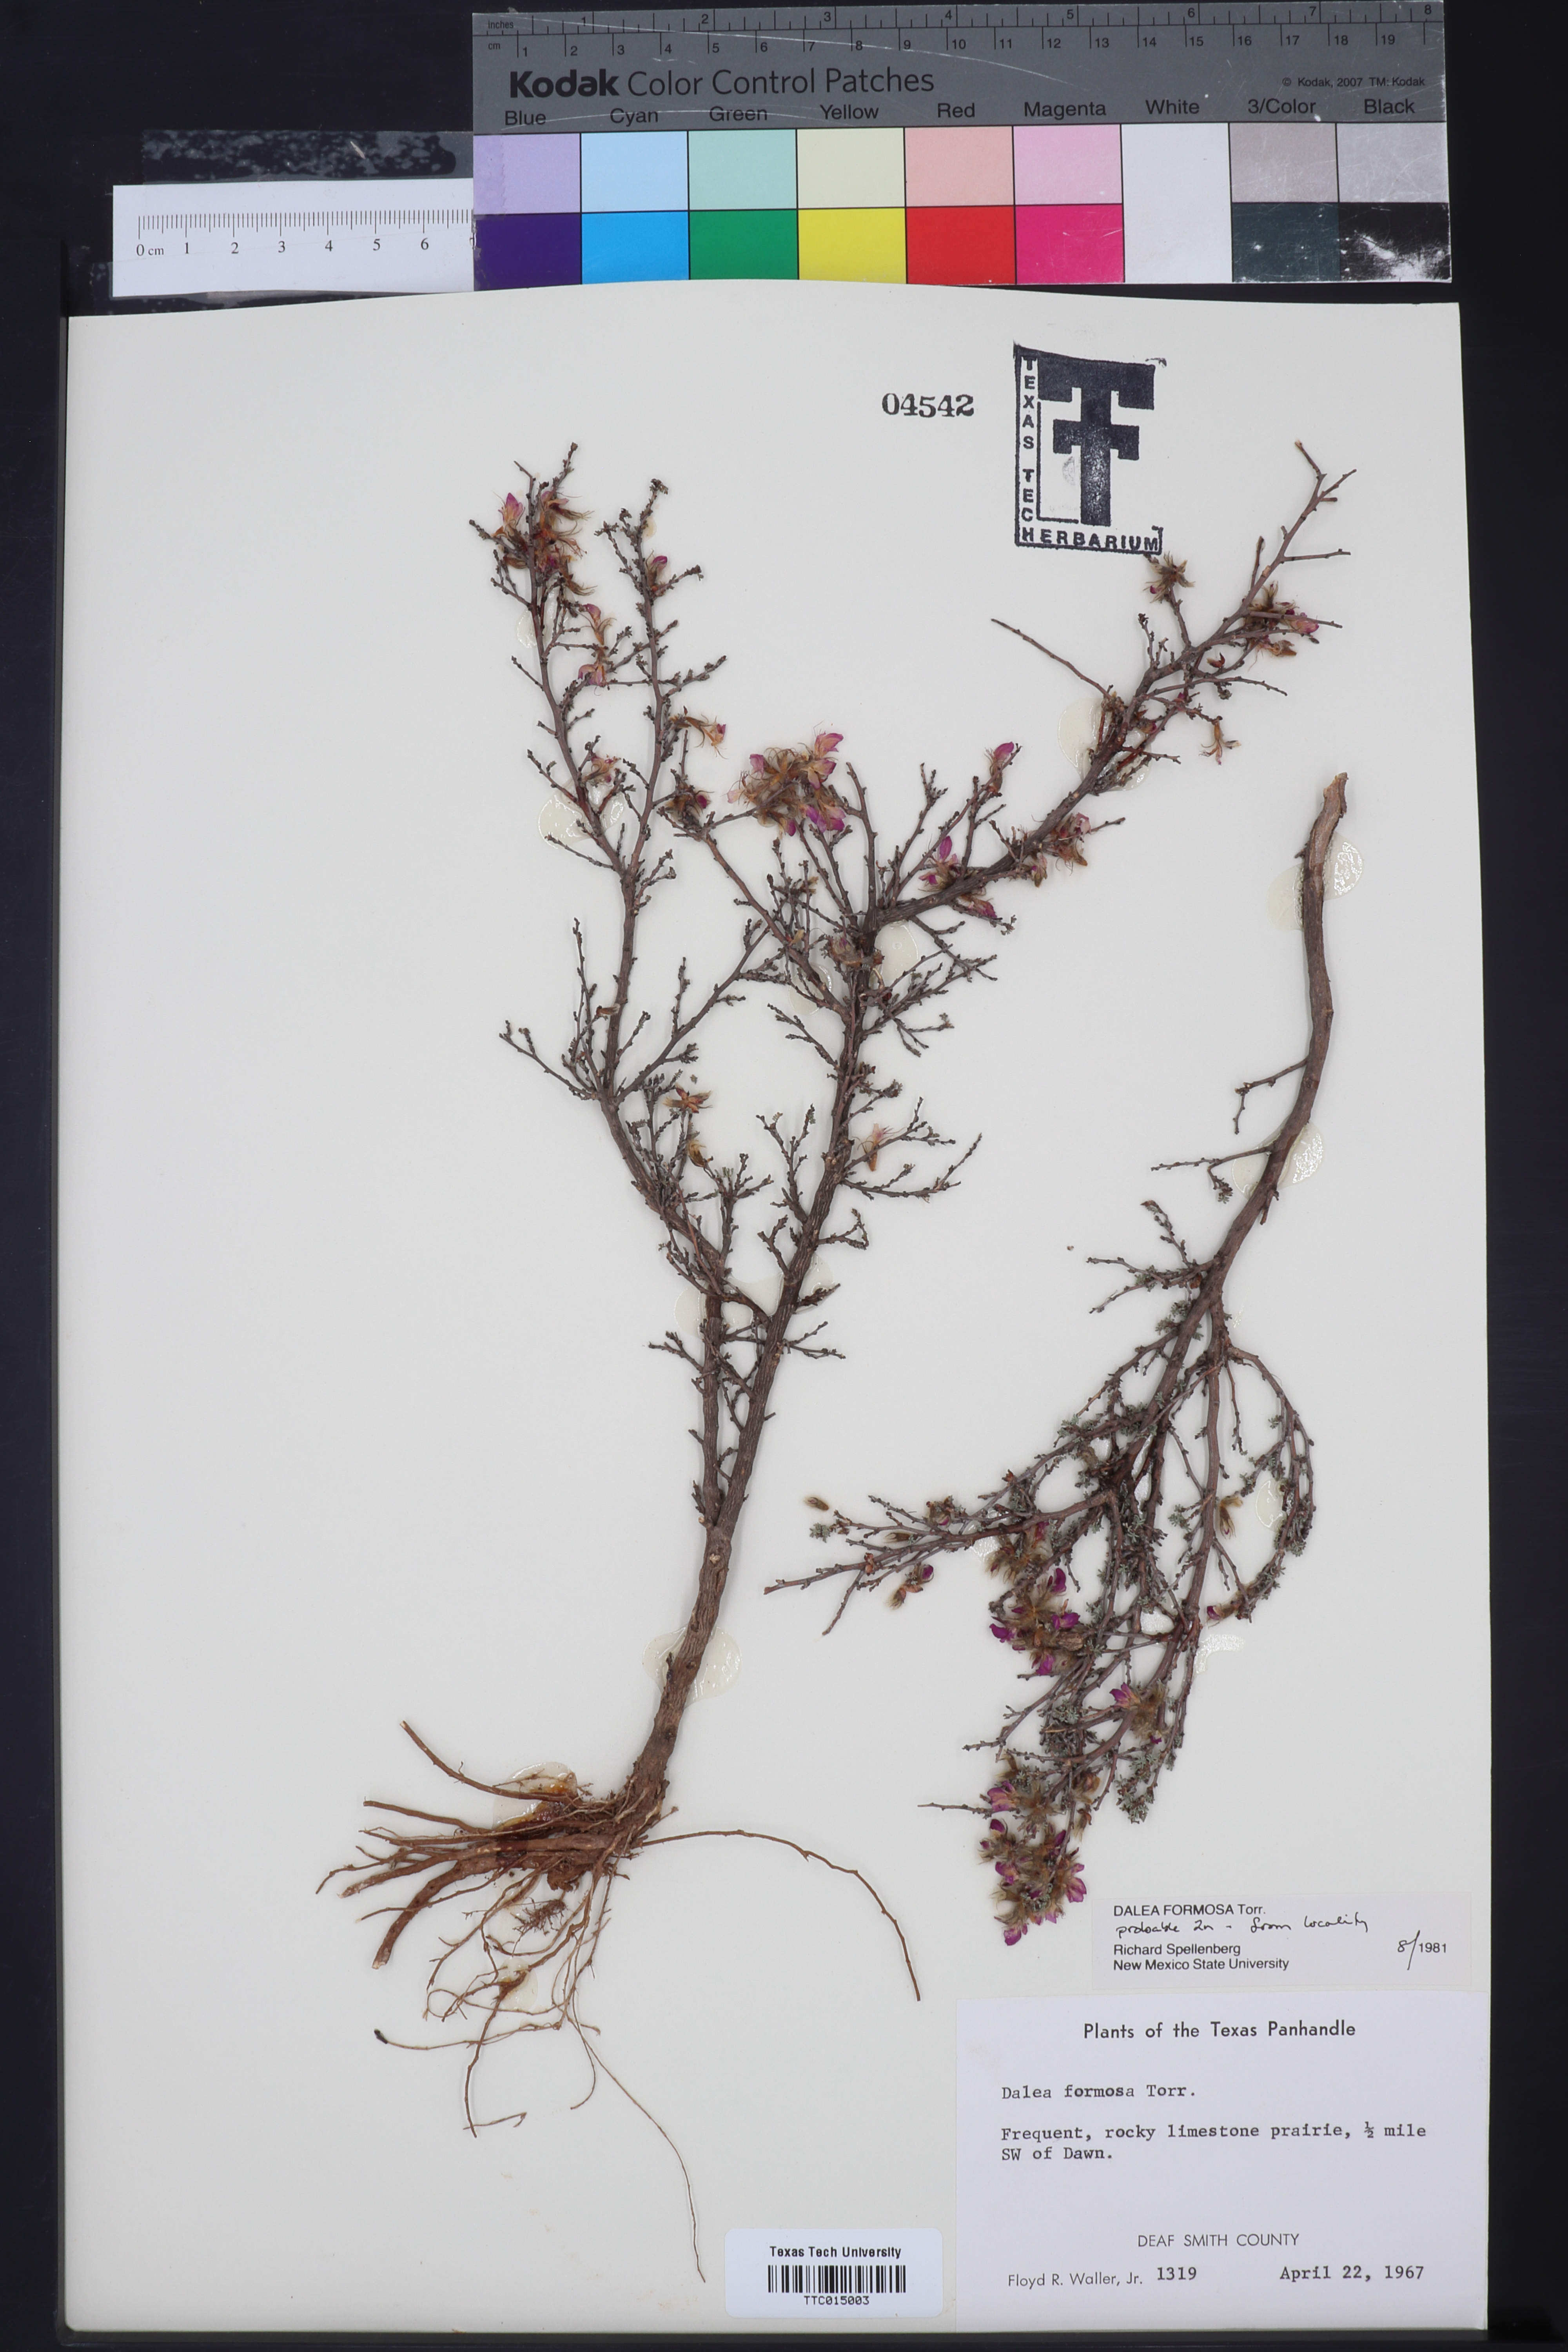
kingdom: Plantae
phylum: Tracheophyta
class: Magnoliopsida
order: Fabales
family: Fabaceae
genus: Dalea
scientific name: Dalea formosa
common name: Feather-plume dalea
